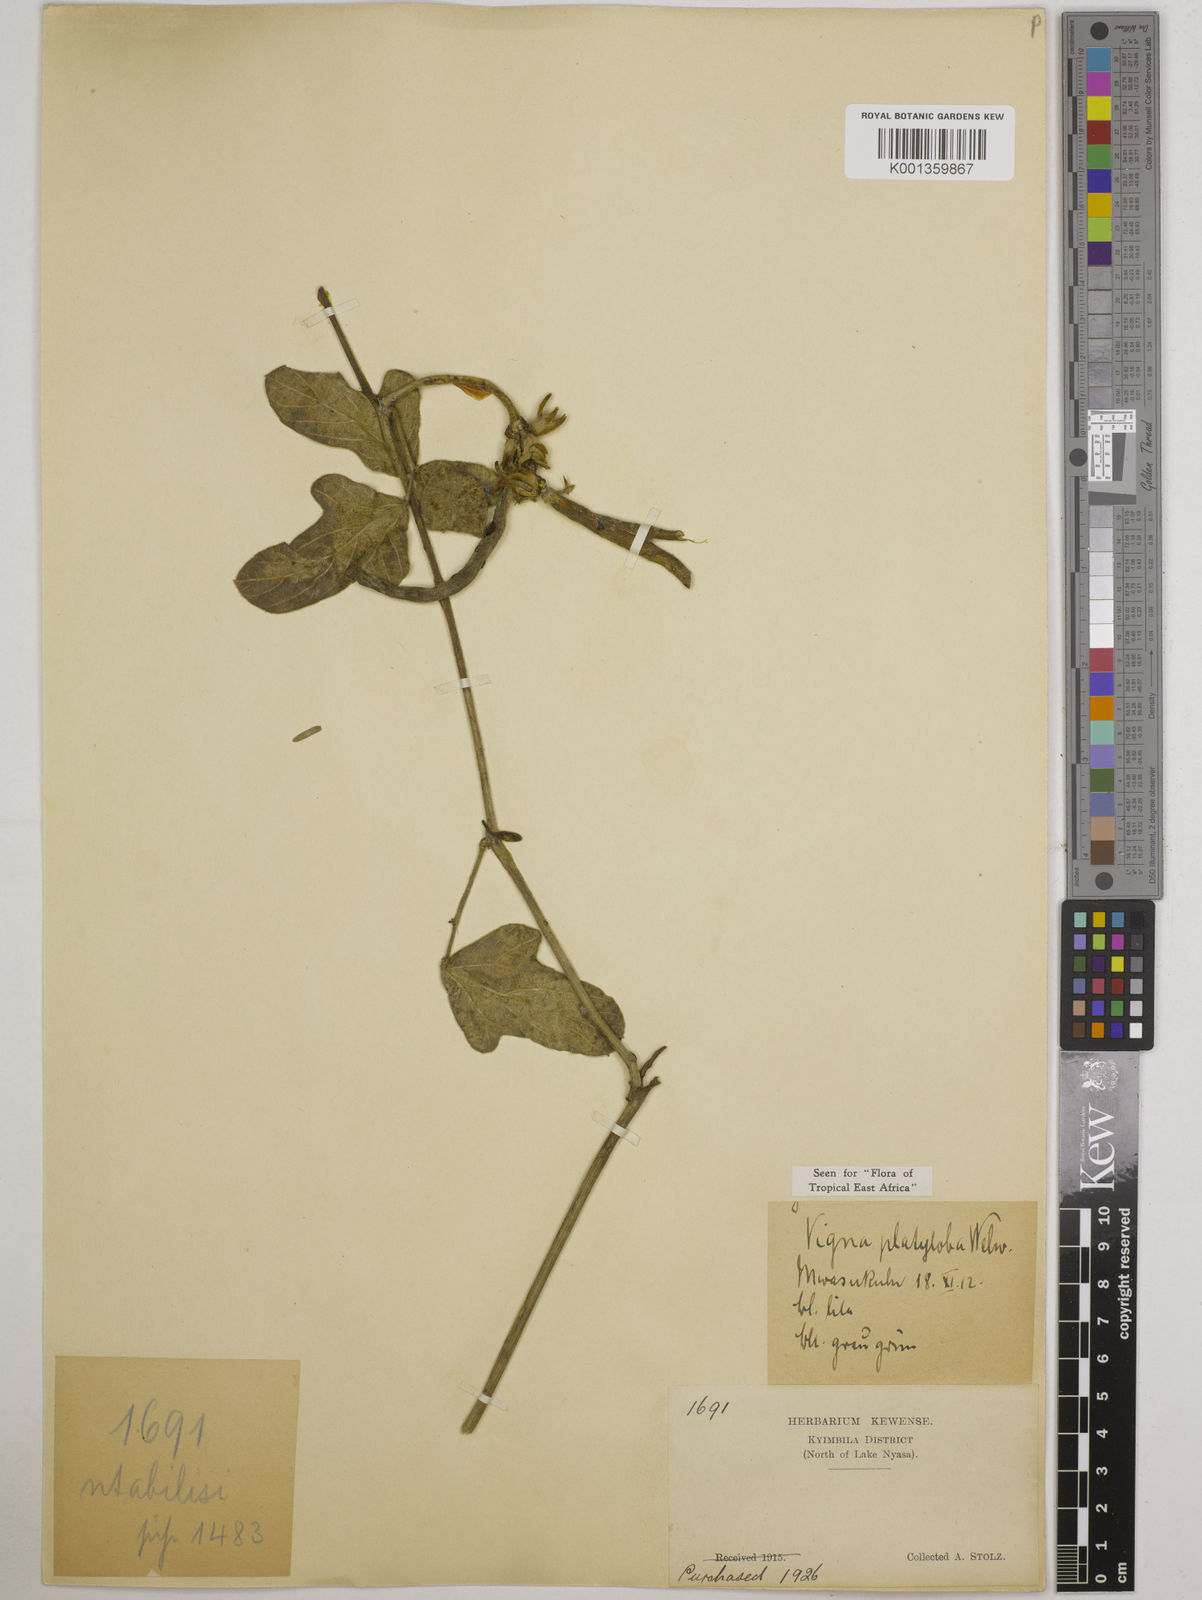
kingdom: Plantae
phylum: Tracheophyta
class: Magnoliopsida
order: Fabales
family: Fabaceae
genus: Vigna
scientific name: Vigna platyloba
